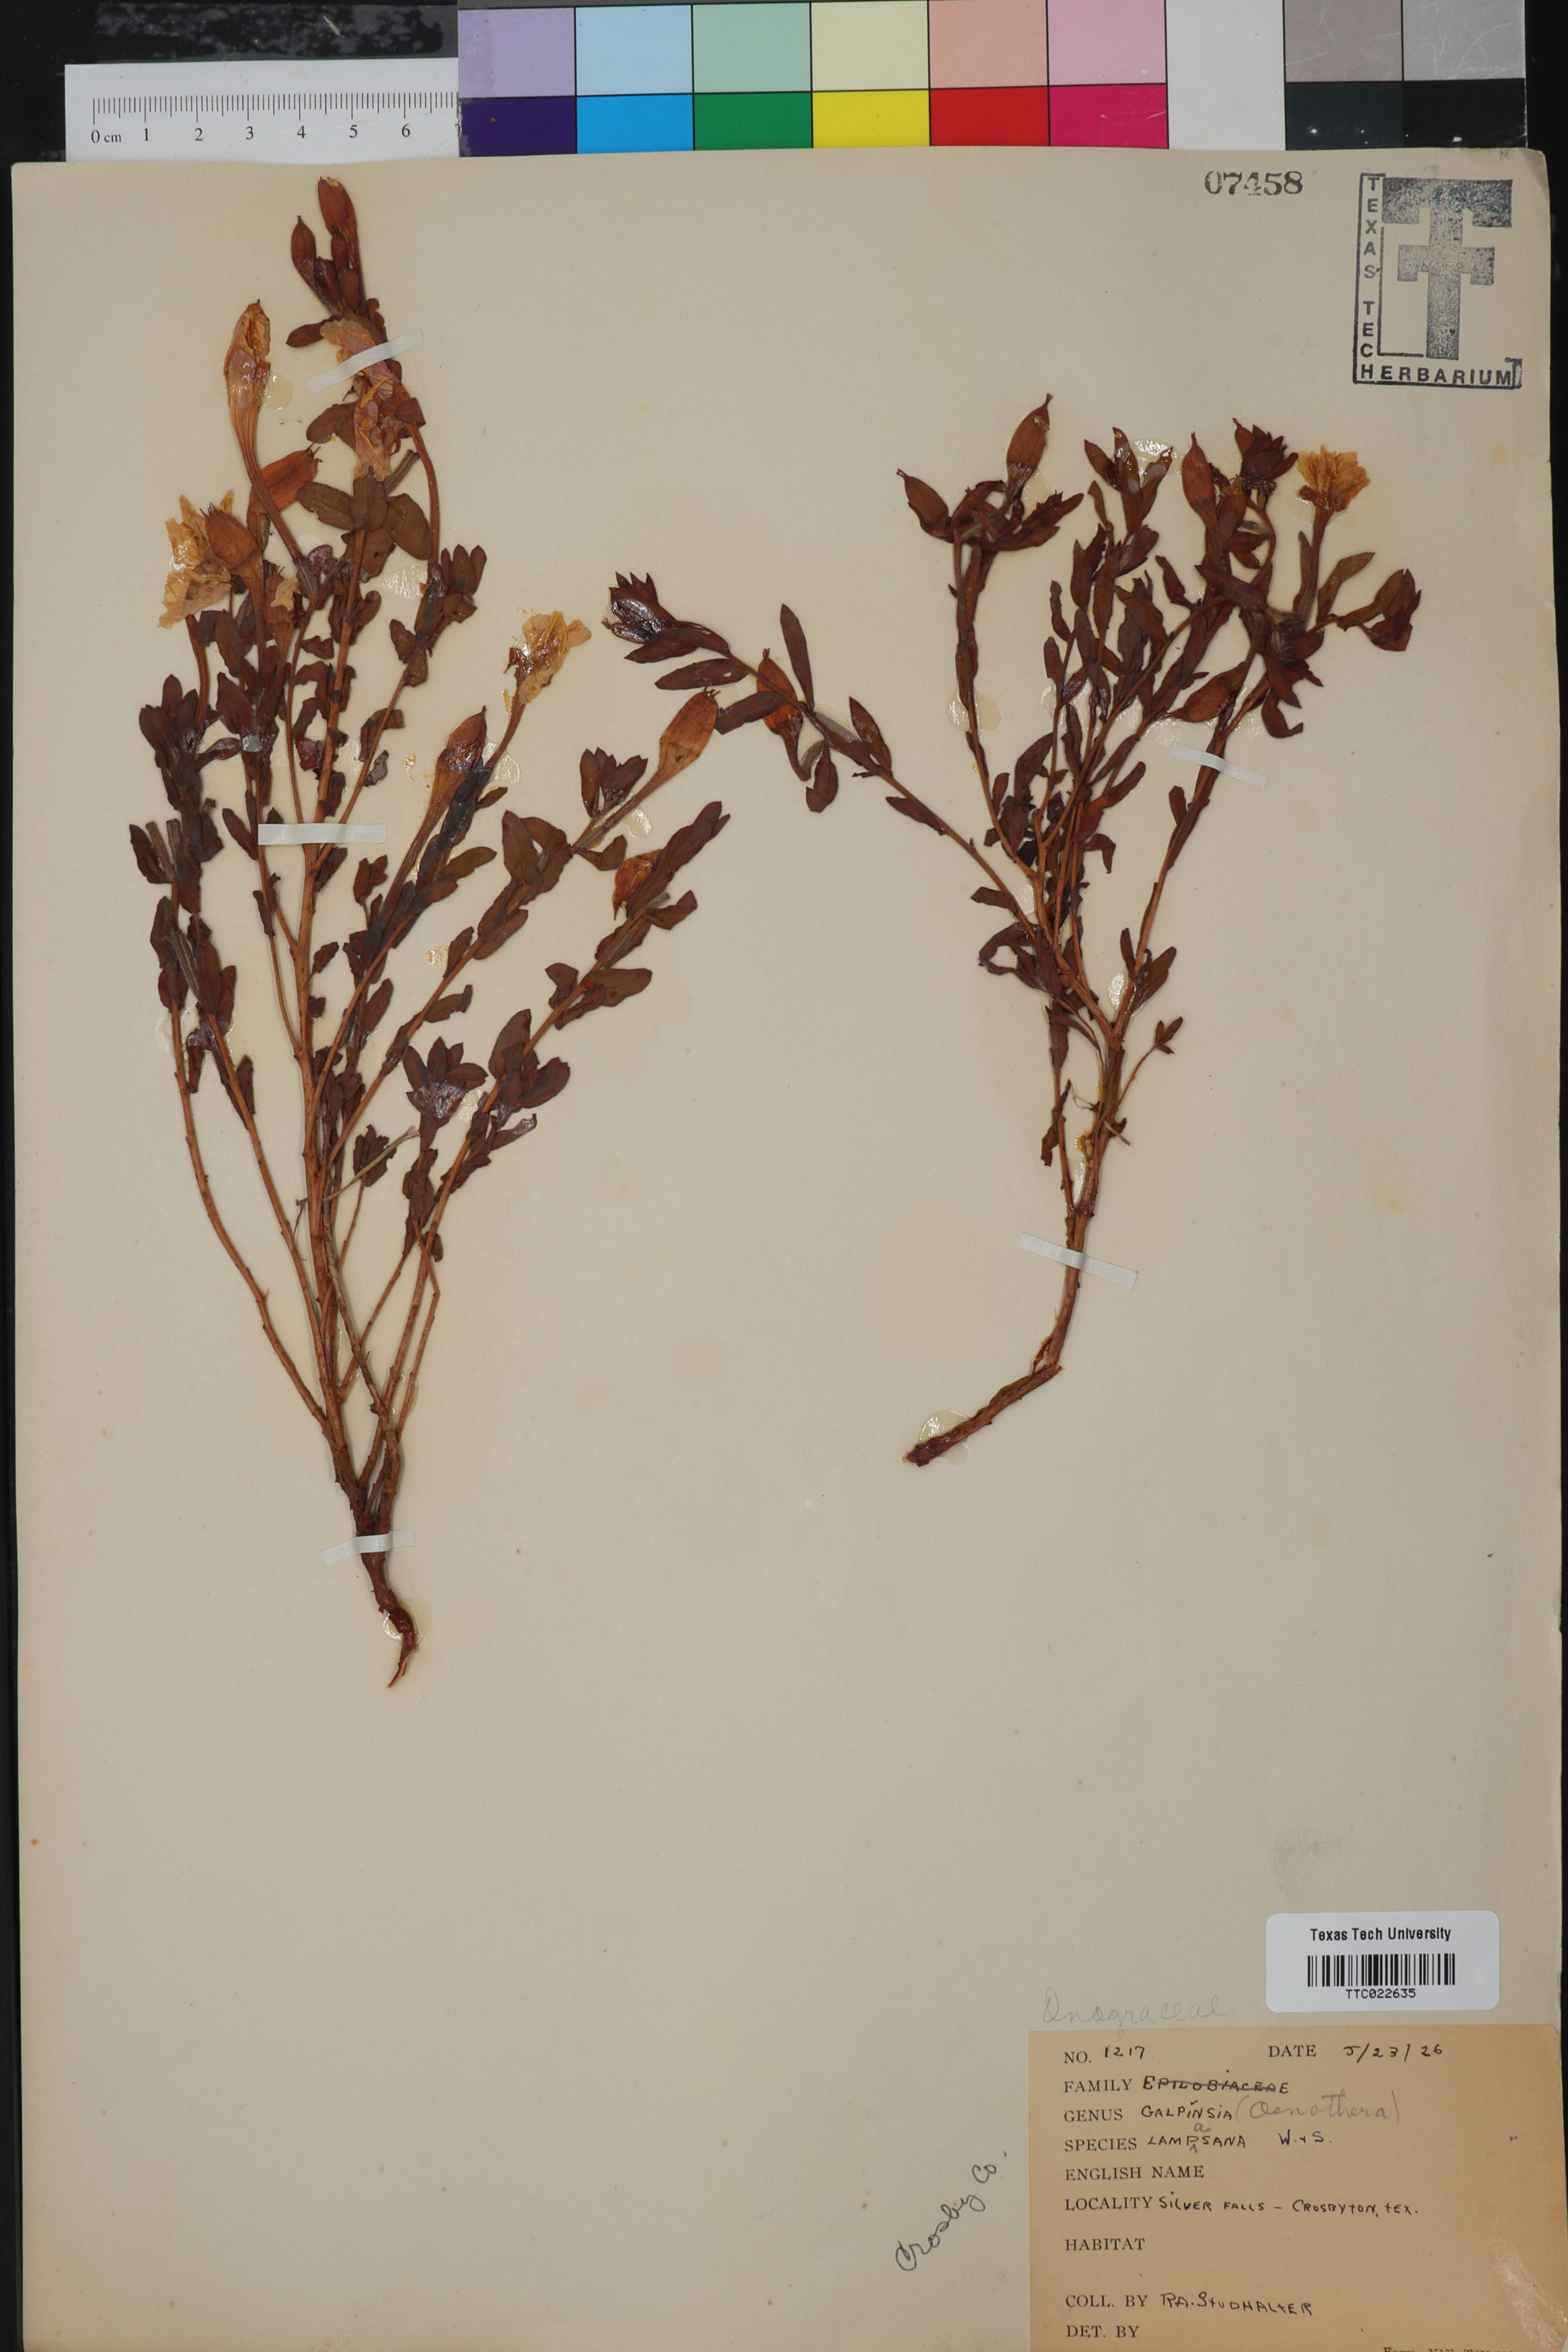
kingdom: Plantae
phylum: Tracheophyta
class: Magnoliopsida
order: Myrtales
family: Onagraceae
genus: Oenothera
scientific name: Oenothera Galpinsia lampsana
